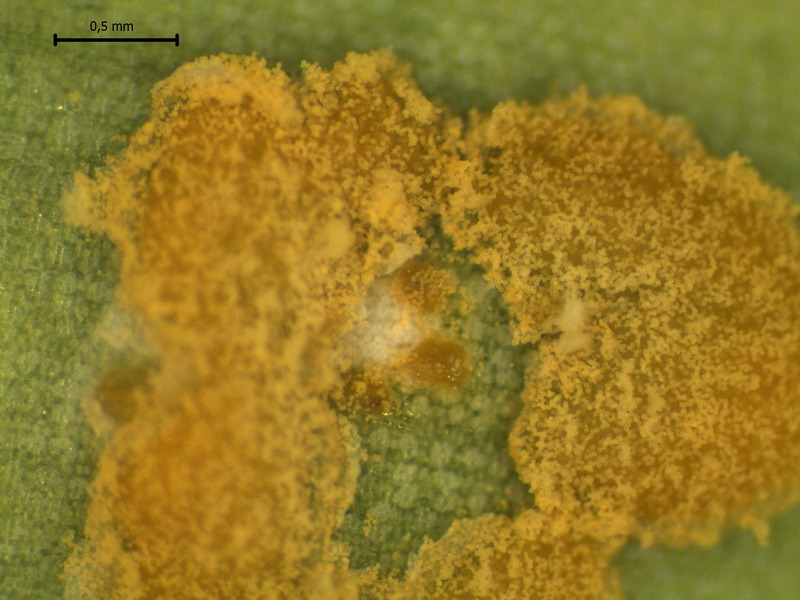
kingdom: Fungi
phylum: Basidiomycota
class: Pucciniomycetes
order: Pucciniales
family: Melampsoraceae
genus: Melampsora
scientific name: Melampsora allii-fragilis
